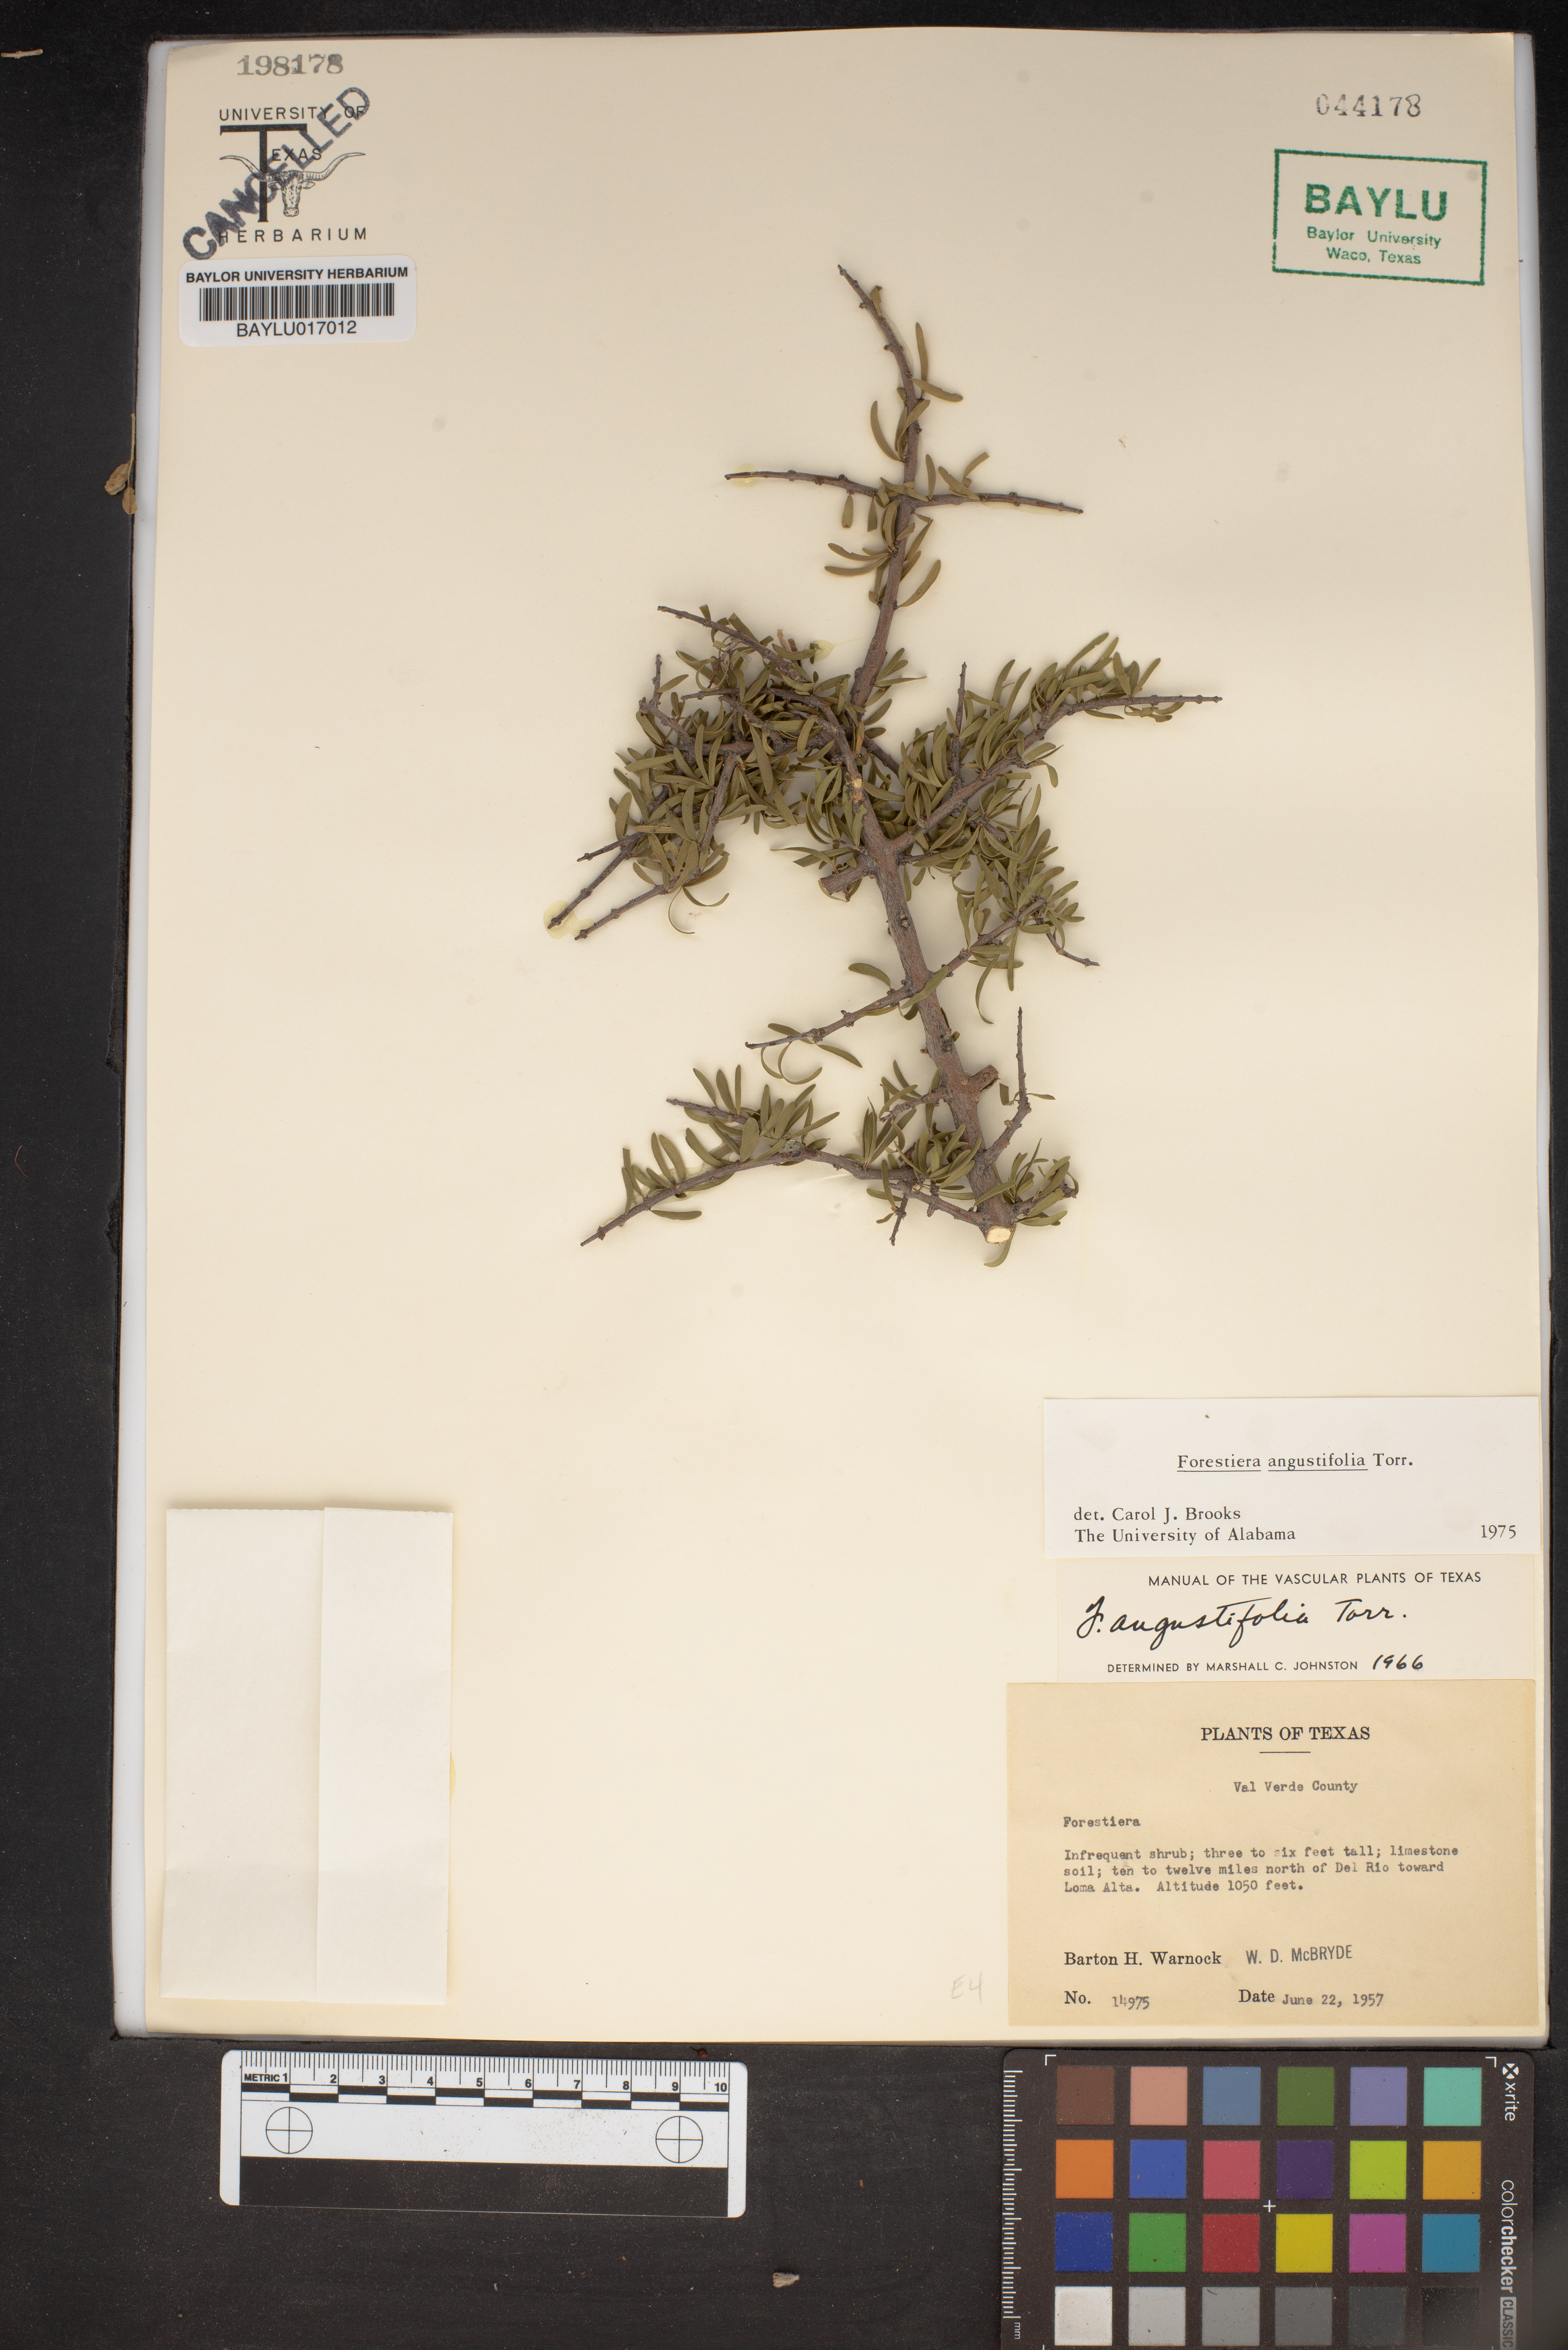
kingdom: Plantae
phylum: Tracheophyta
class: Magnoliopsida
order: Lamiales
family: Oleaceae
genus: Forestiera
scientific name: Forestiera angustifolia
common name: Elbowbush
